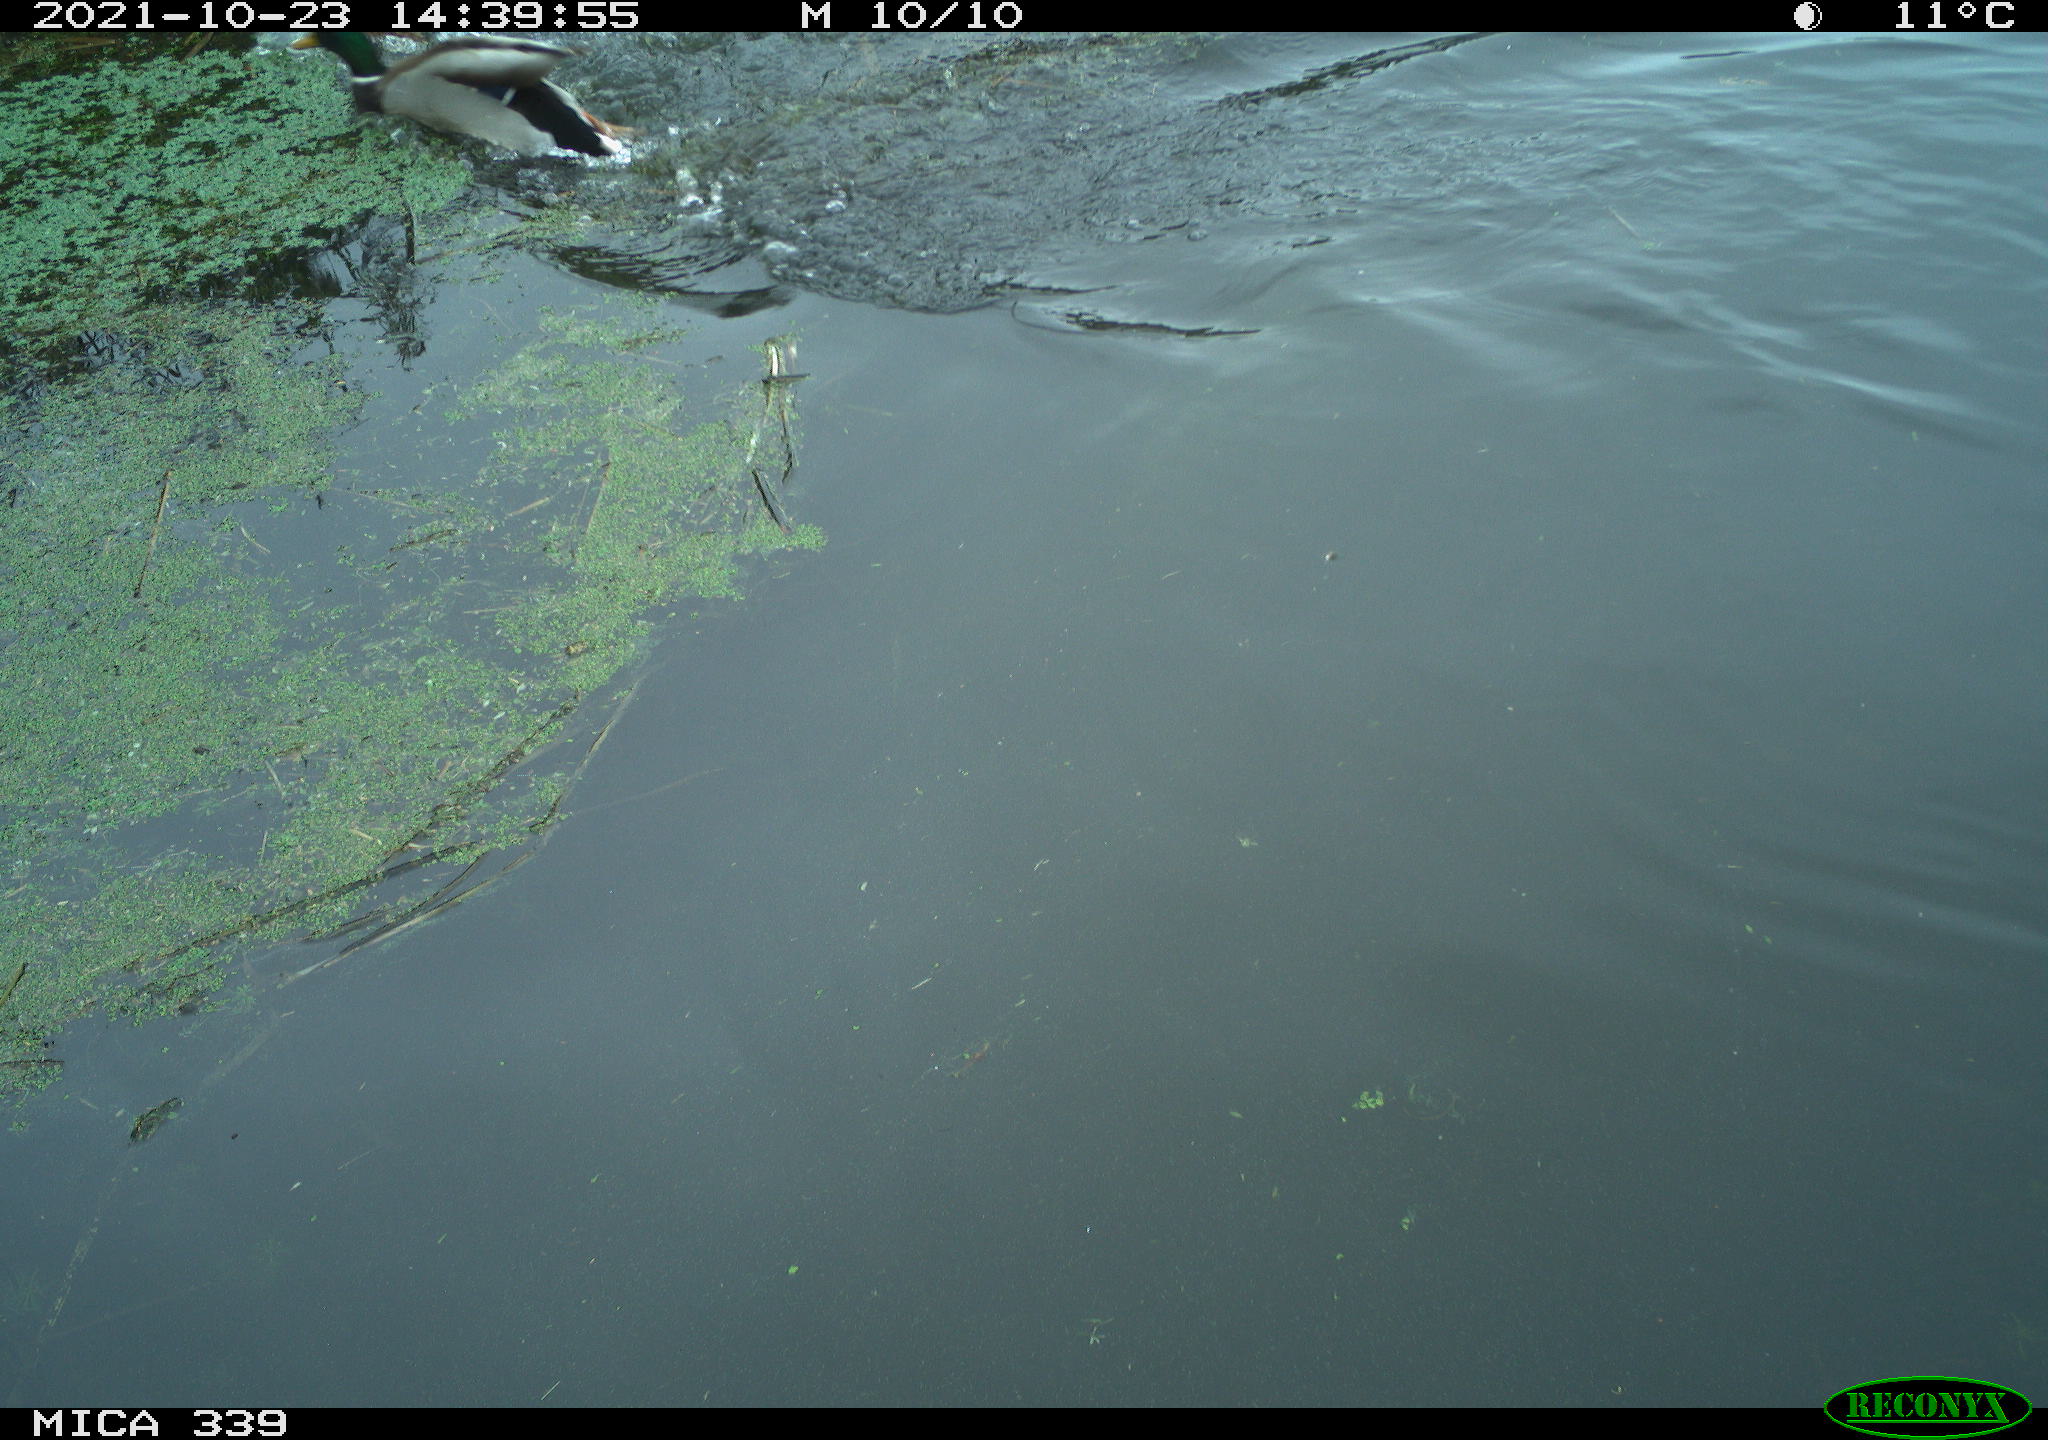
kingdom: Animalia
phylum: Chordata
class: Aves
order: Anseriformes
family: Anatidae
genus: Anas
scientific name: Anas platyrhynchos
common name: Mallard
